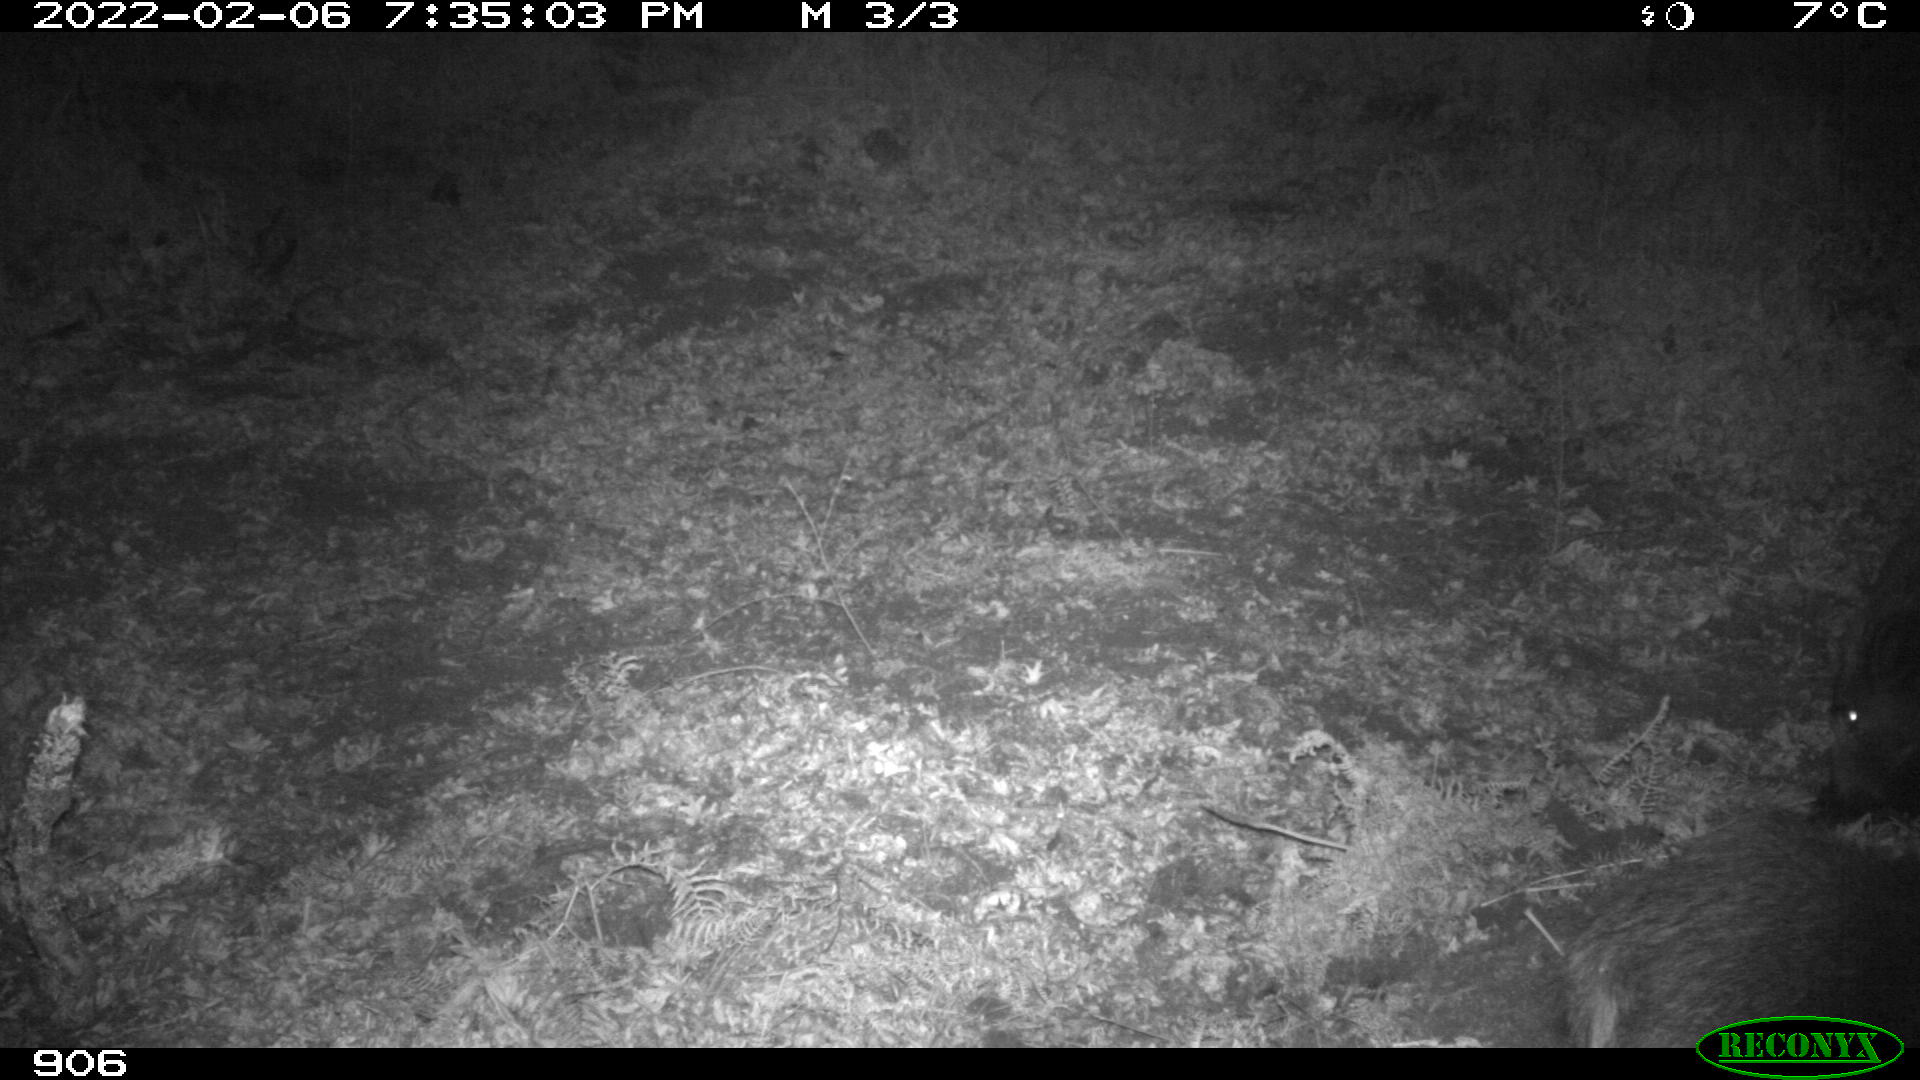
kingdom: Animalia
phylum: Chordata
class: Mammalia
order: Artiodactyla
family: Suidae
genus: Sus
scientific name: Sus scrofa
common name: Wild boar
